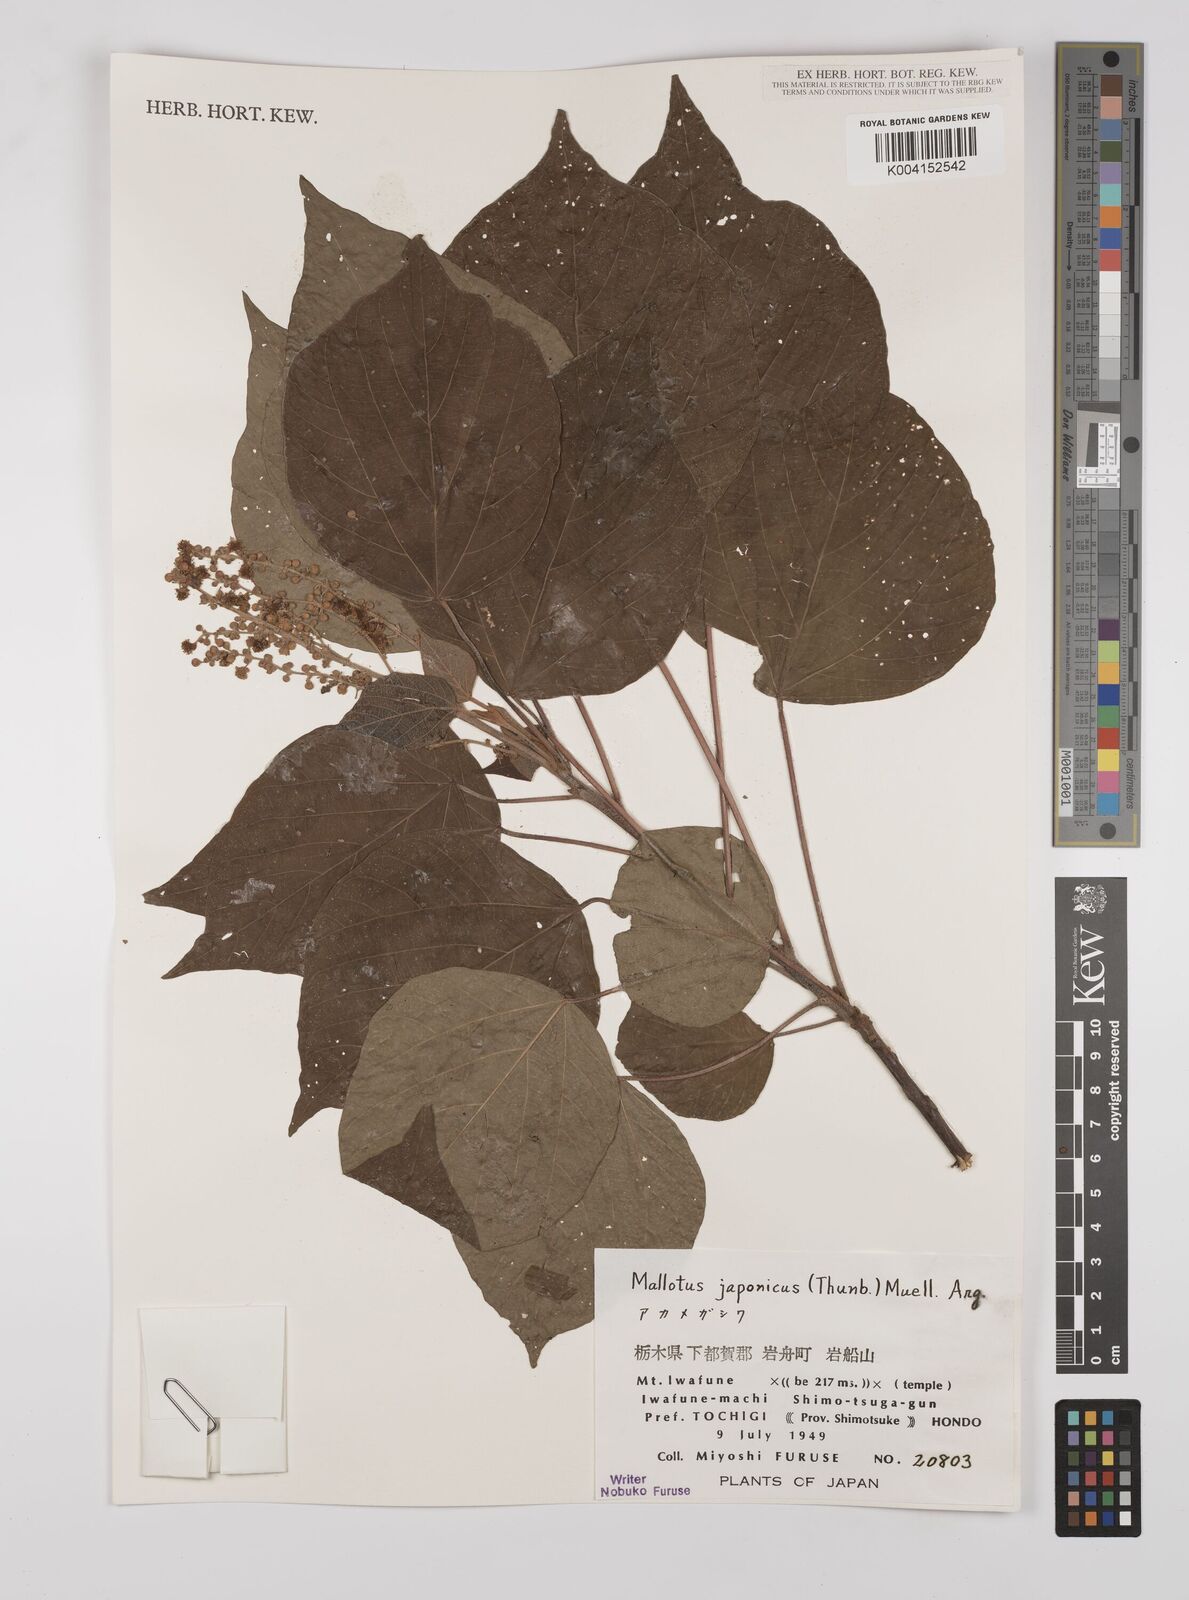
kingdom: Plantae
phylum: Tracheophyta
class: Magnoliopsida
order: Malpighiales
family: Euphorbiaceae
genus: Mallotus
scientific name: Mallotus japonicus
